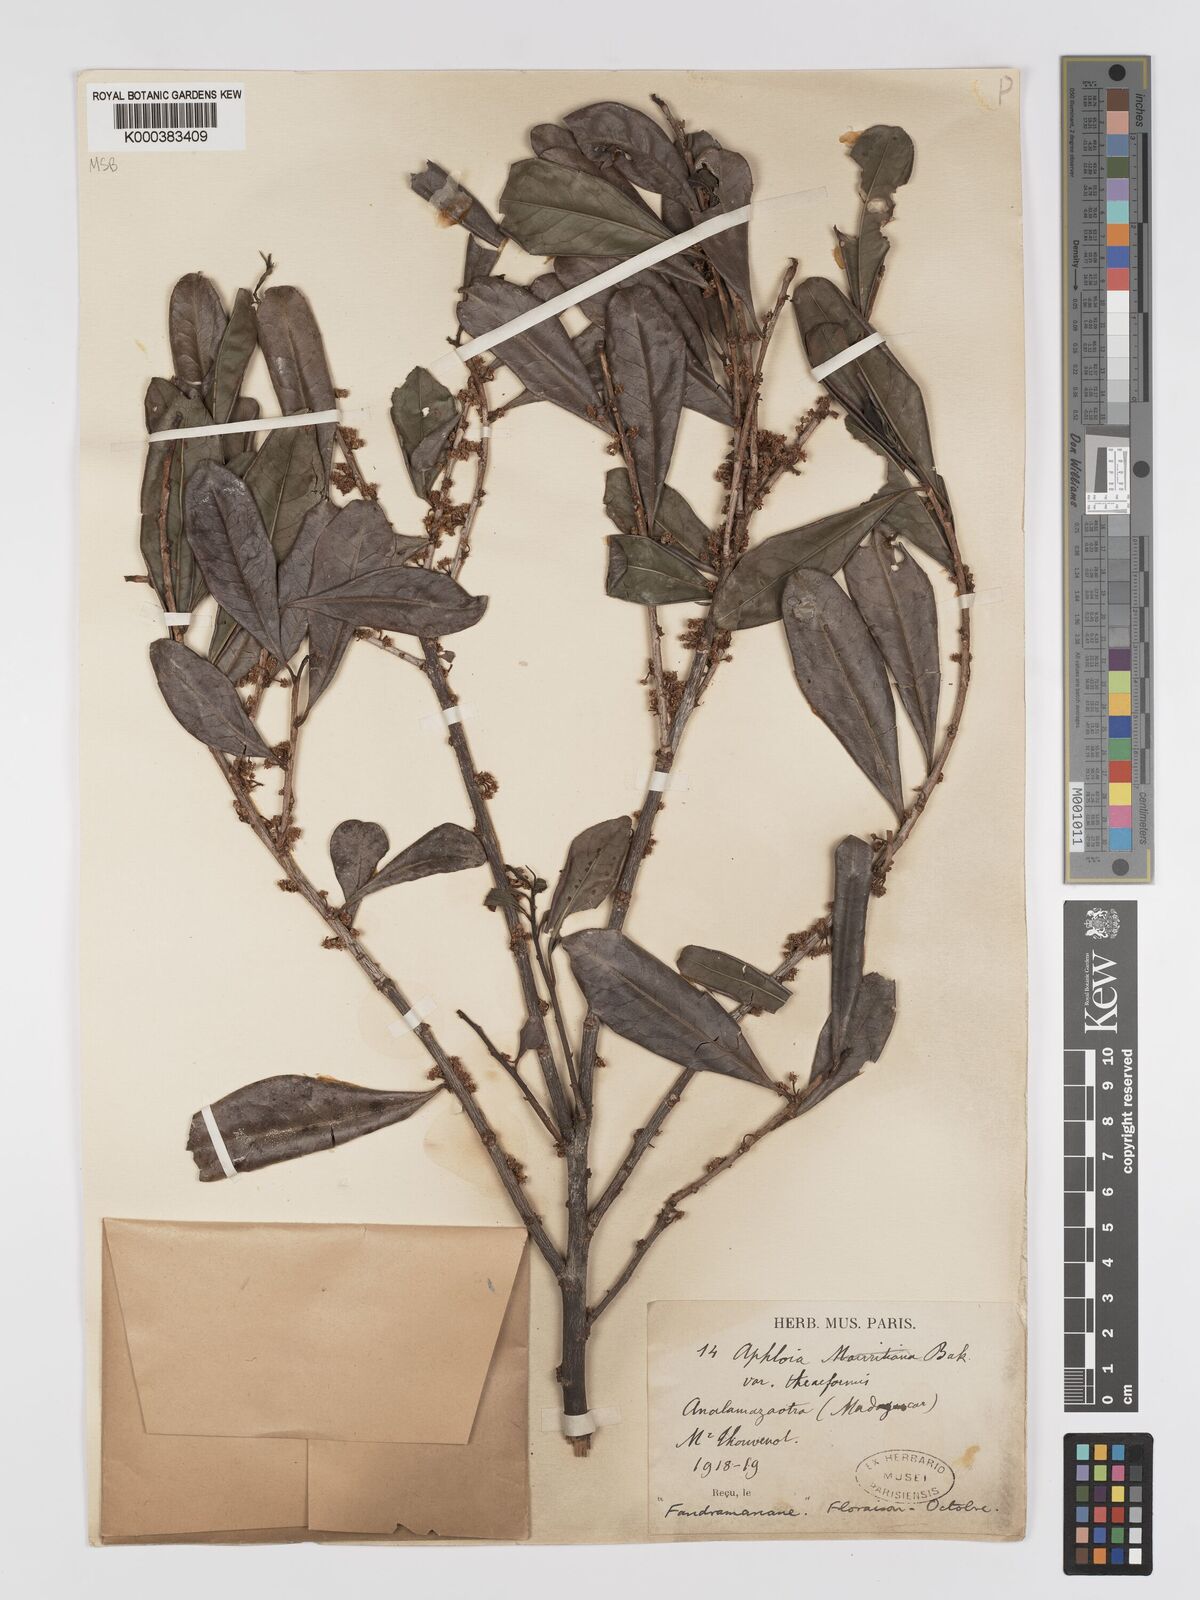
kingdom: Plantae
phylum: Tracheophyta
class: Magnoliopsida
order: Crossosomatales
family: Aphloiaceae
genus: Aphloia
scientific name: Aphloia theiformis
